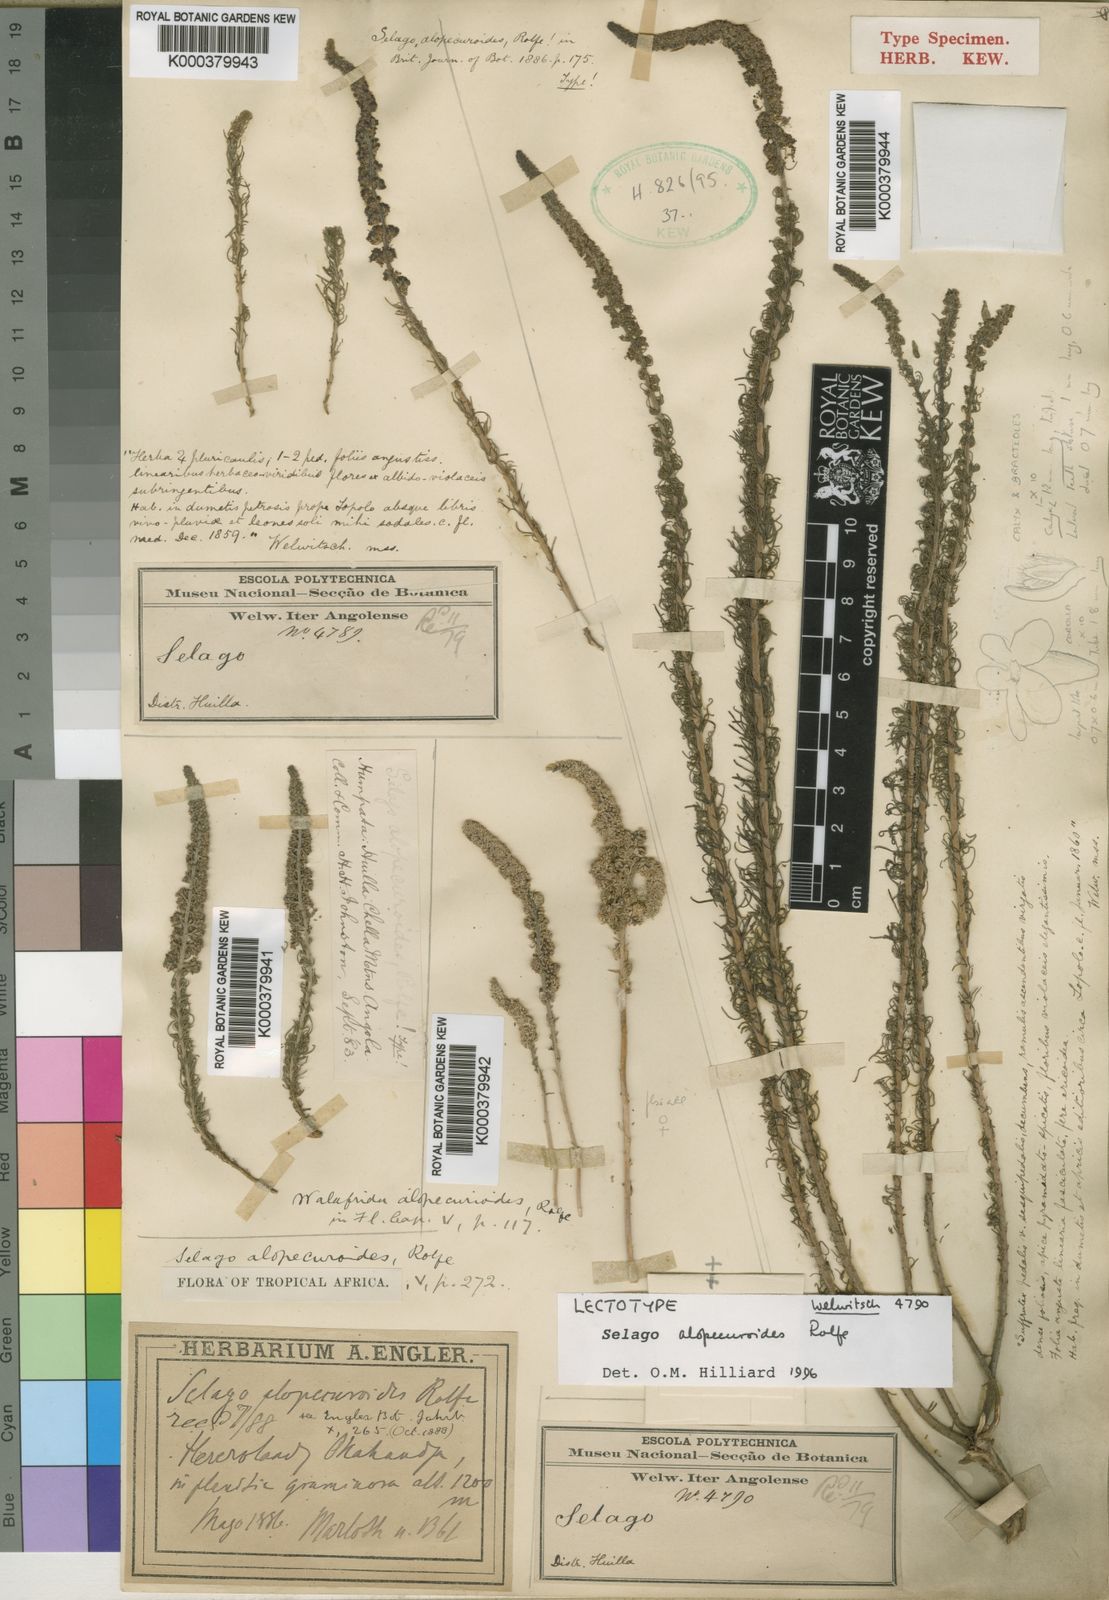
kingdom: Plantae
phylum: Tracheophyta
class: Magnoliopsida
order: Lamiales
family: Scrophulariaceae
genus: Selago
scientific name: Selago alopecuroides
